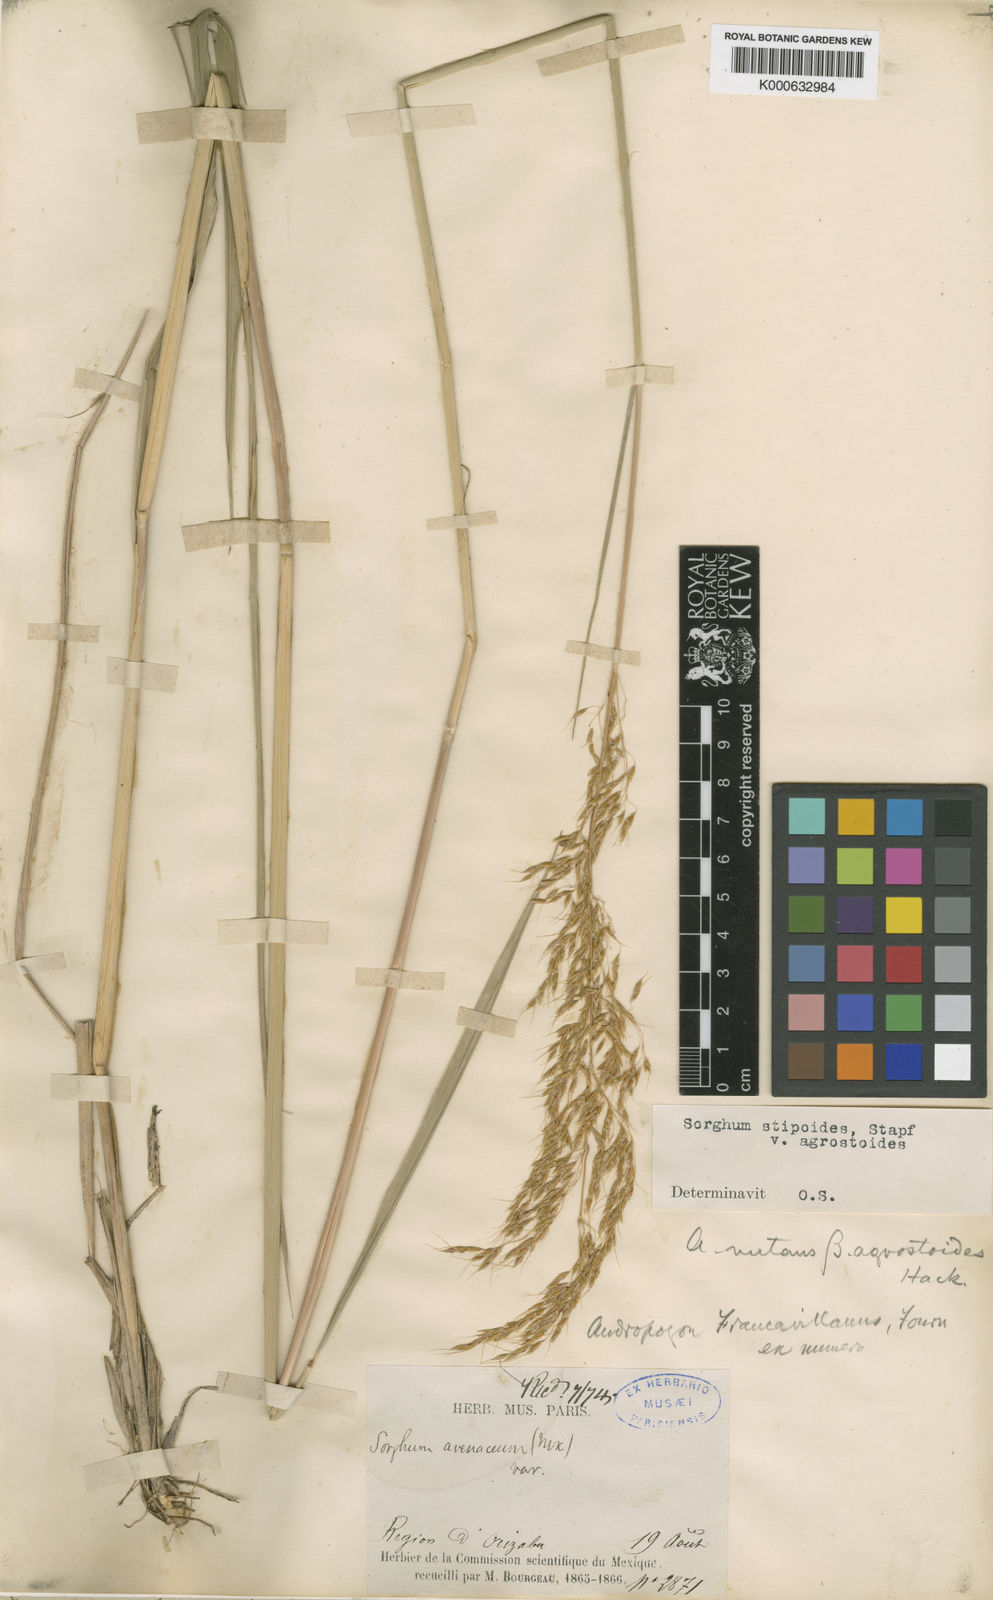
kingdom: Plantae
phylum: Tracheophyta
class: Liliopsida
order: Poales
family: Poaceae
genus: Sorghastrum
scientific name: Sorghastrum setosum
